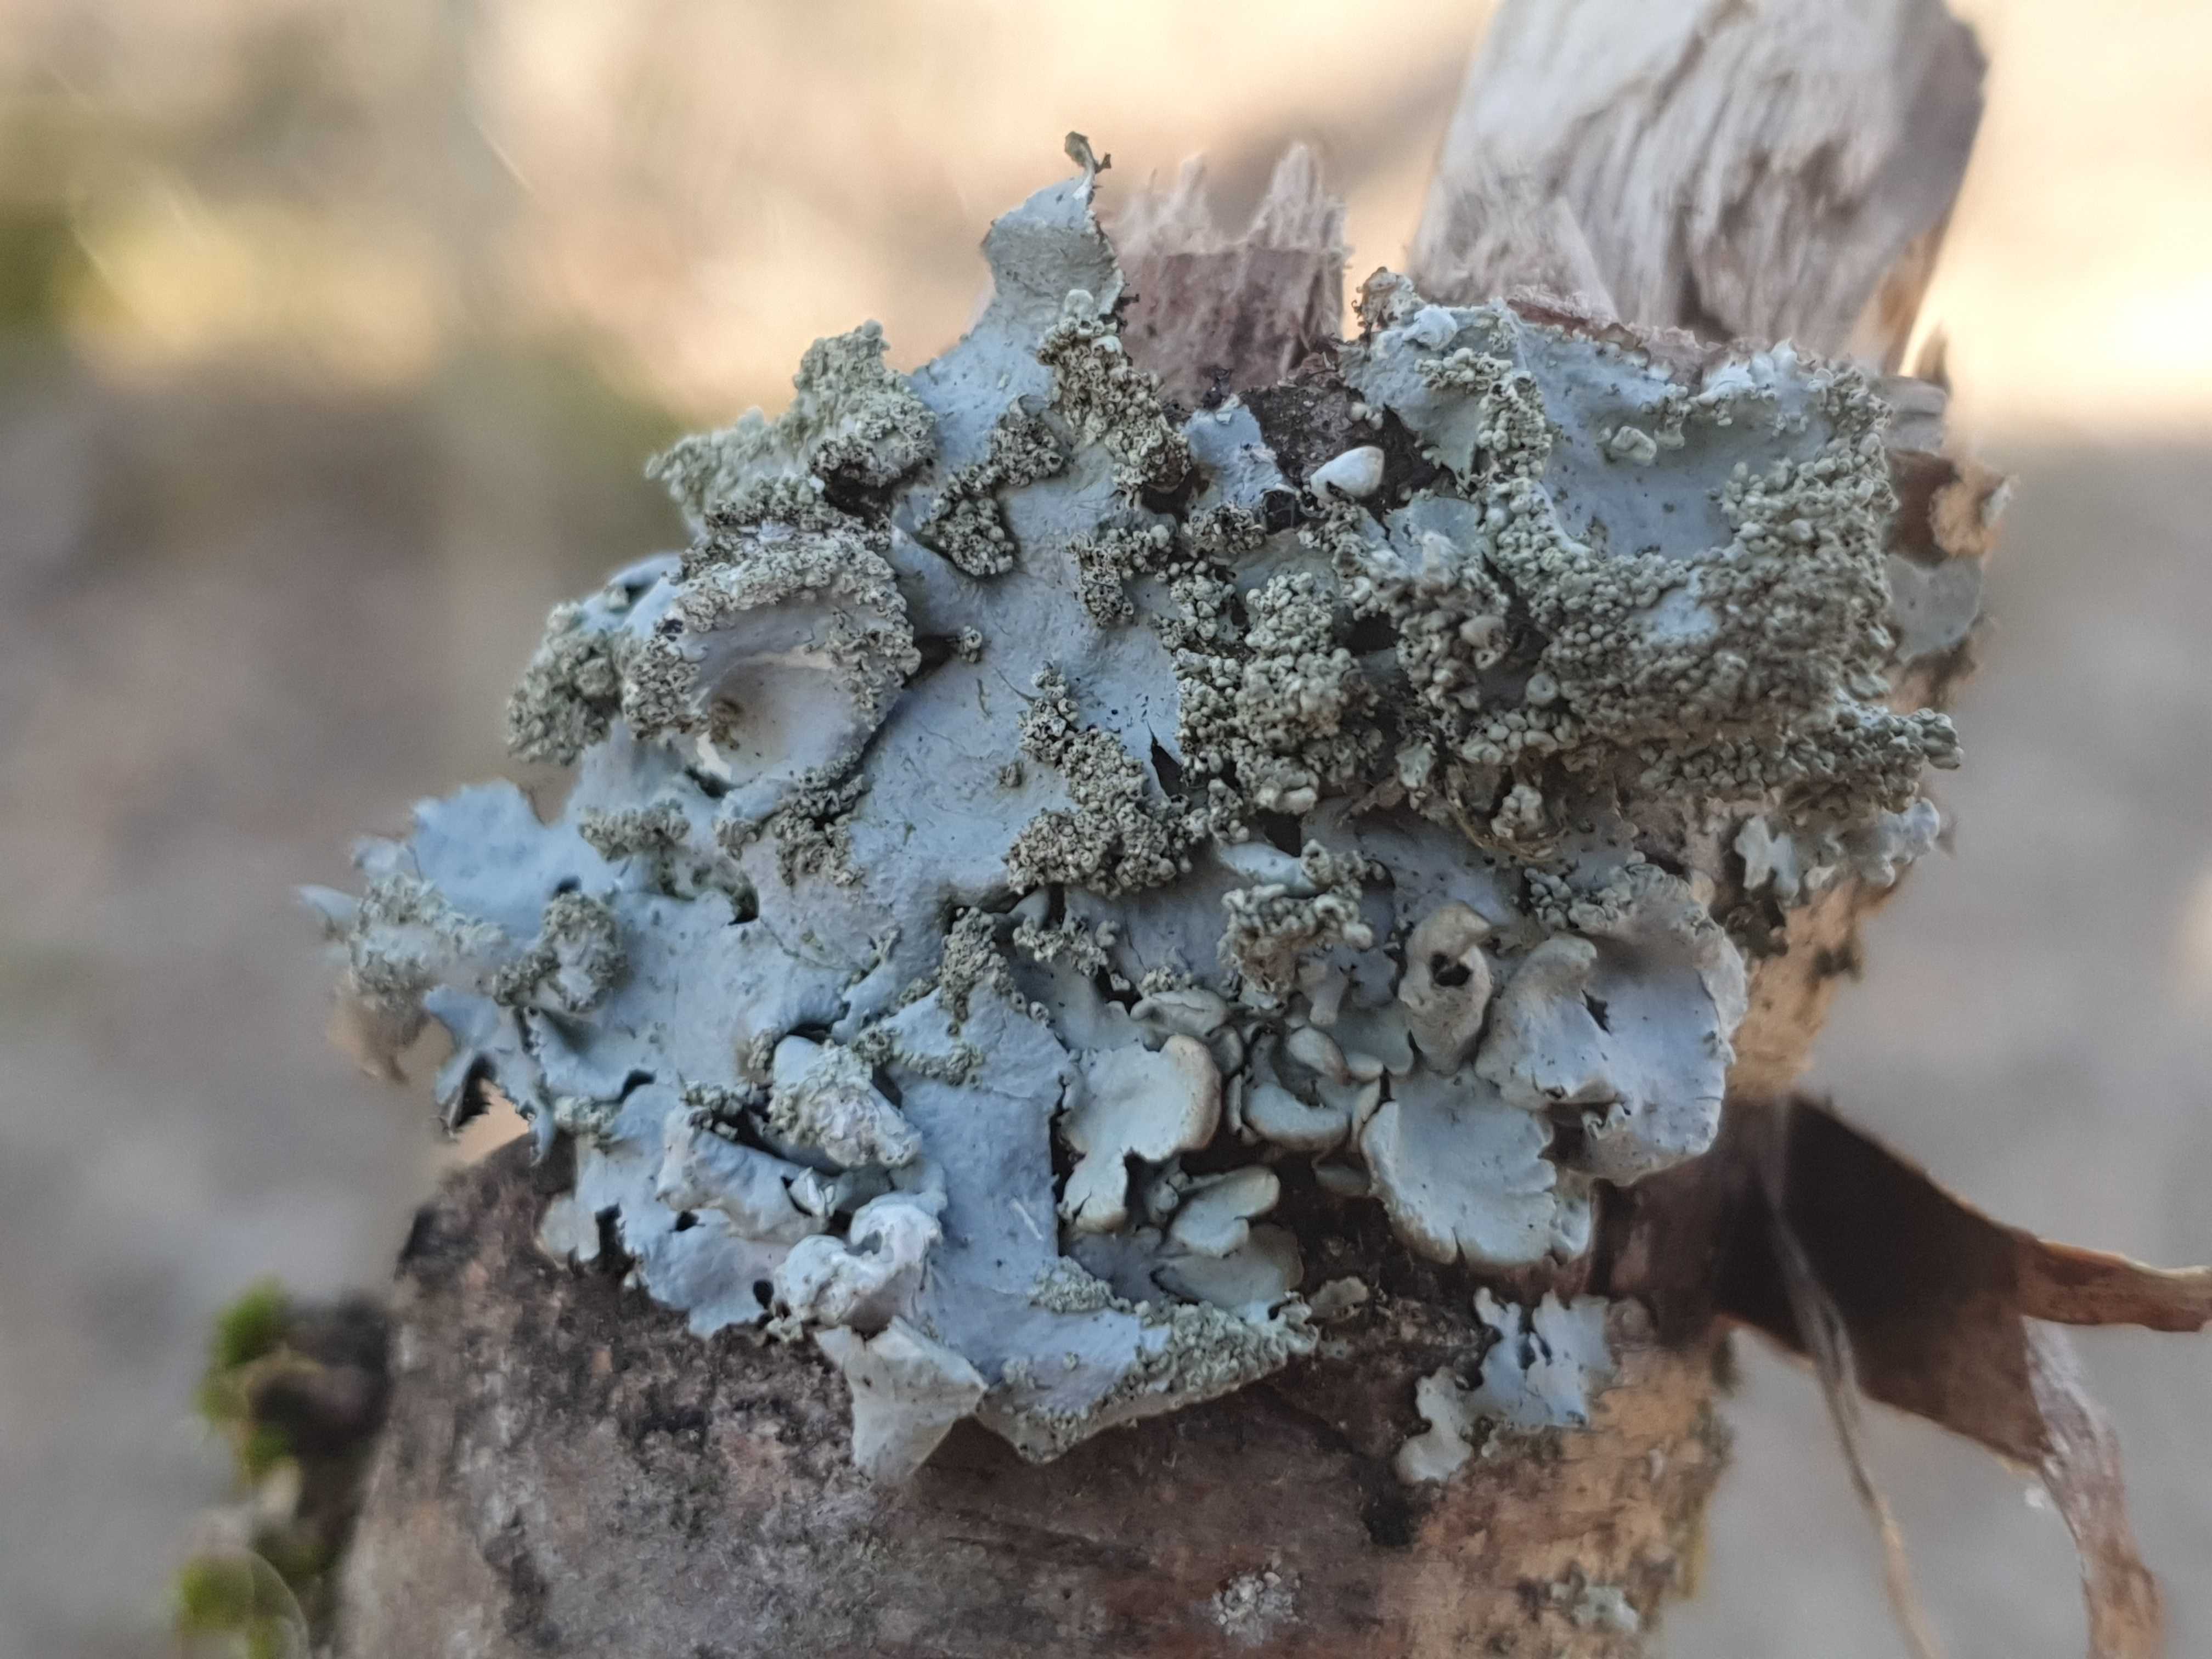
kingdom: Fungi
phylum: Ascomycota
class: Lecanoromycetes
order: Lecanorales
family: Parmeliaceae
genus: Hypotrachyna
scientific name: Hypotrachyna afrorevoluta
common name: kyst-skållav
